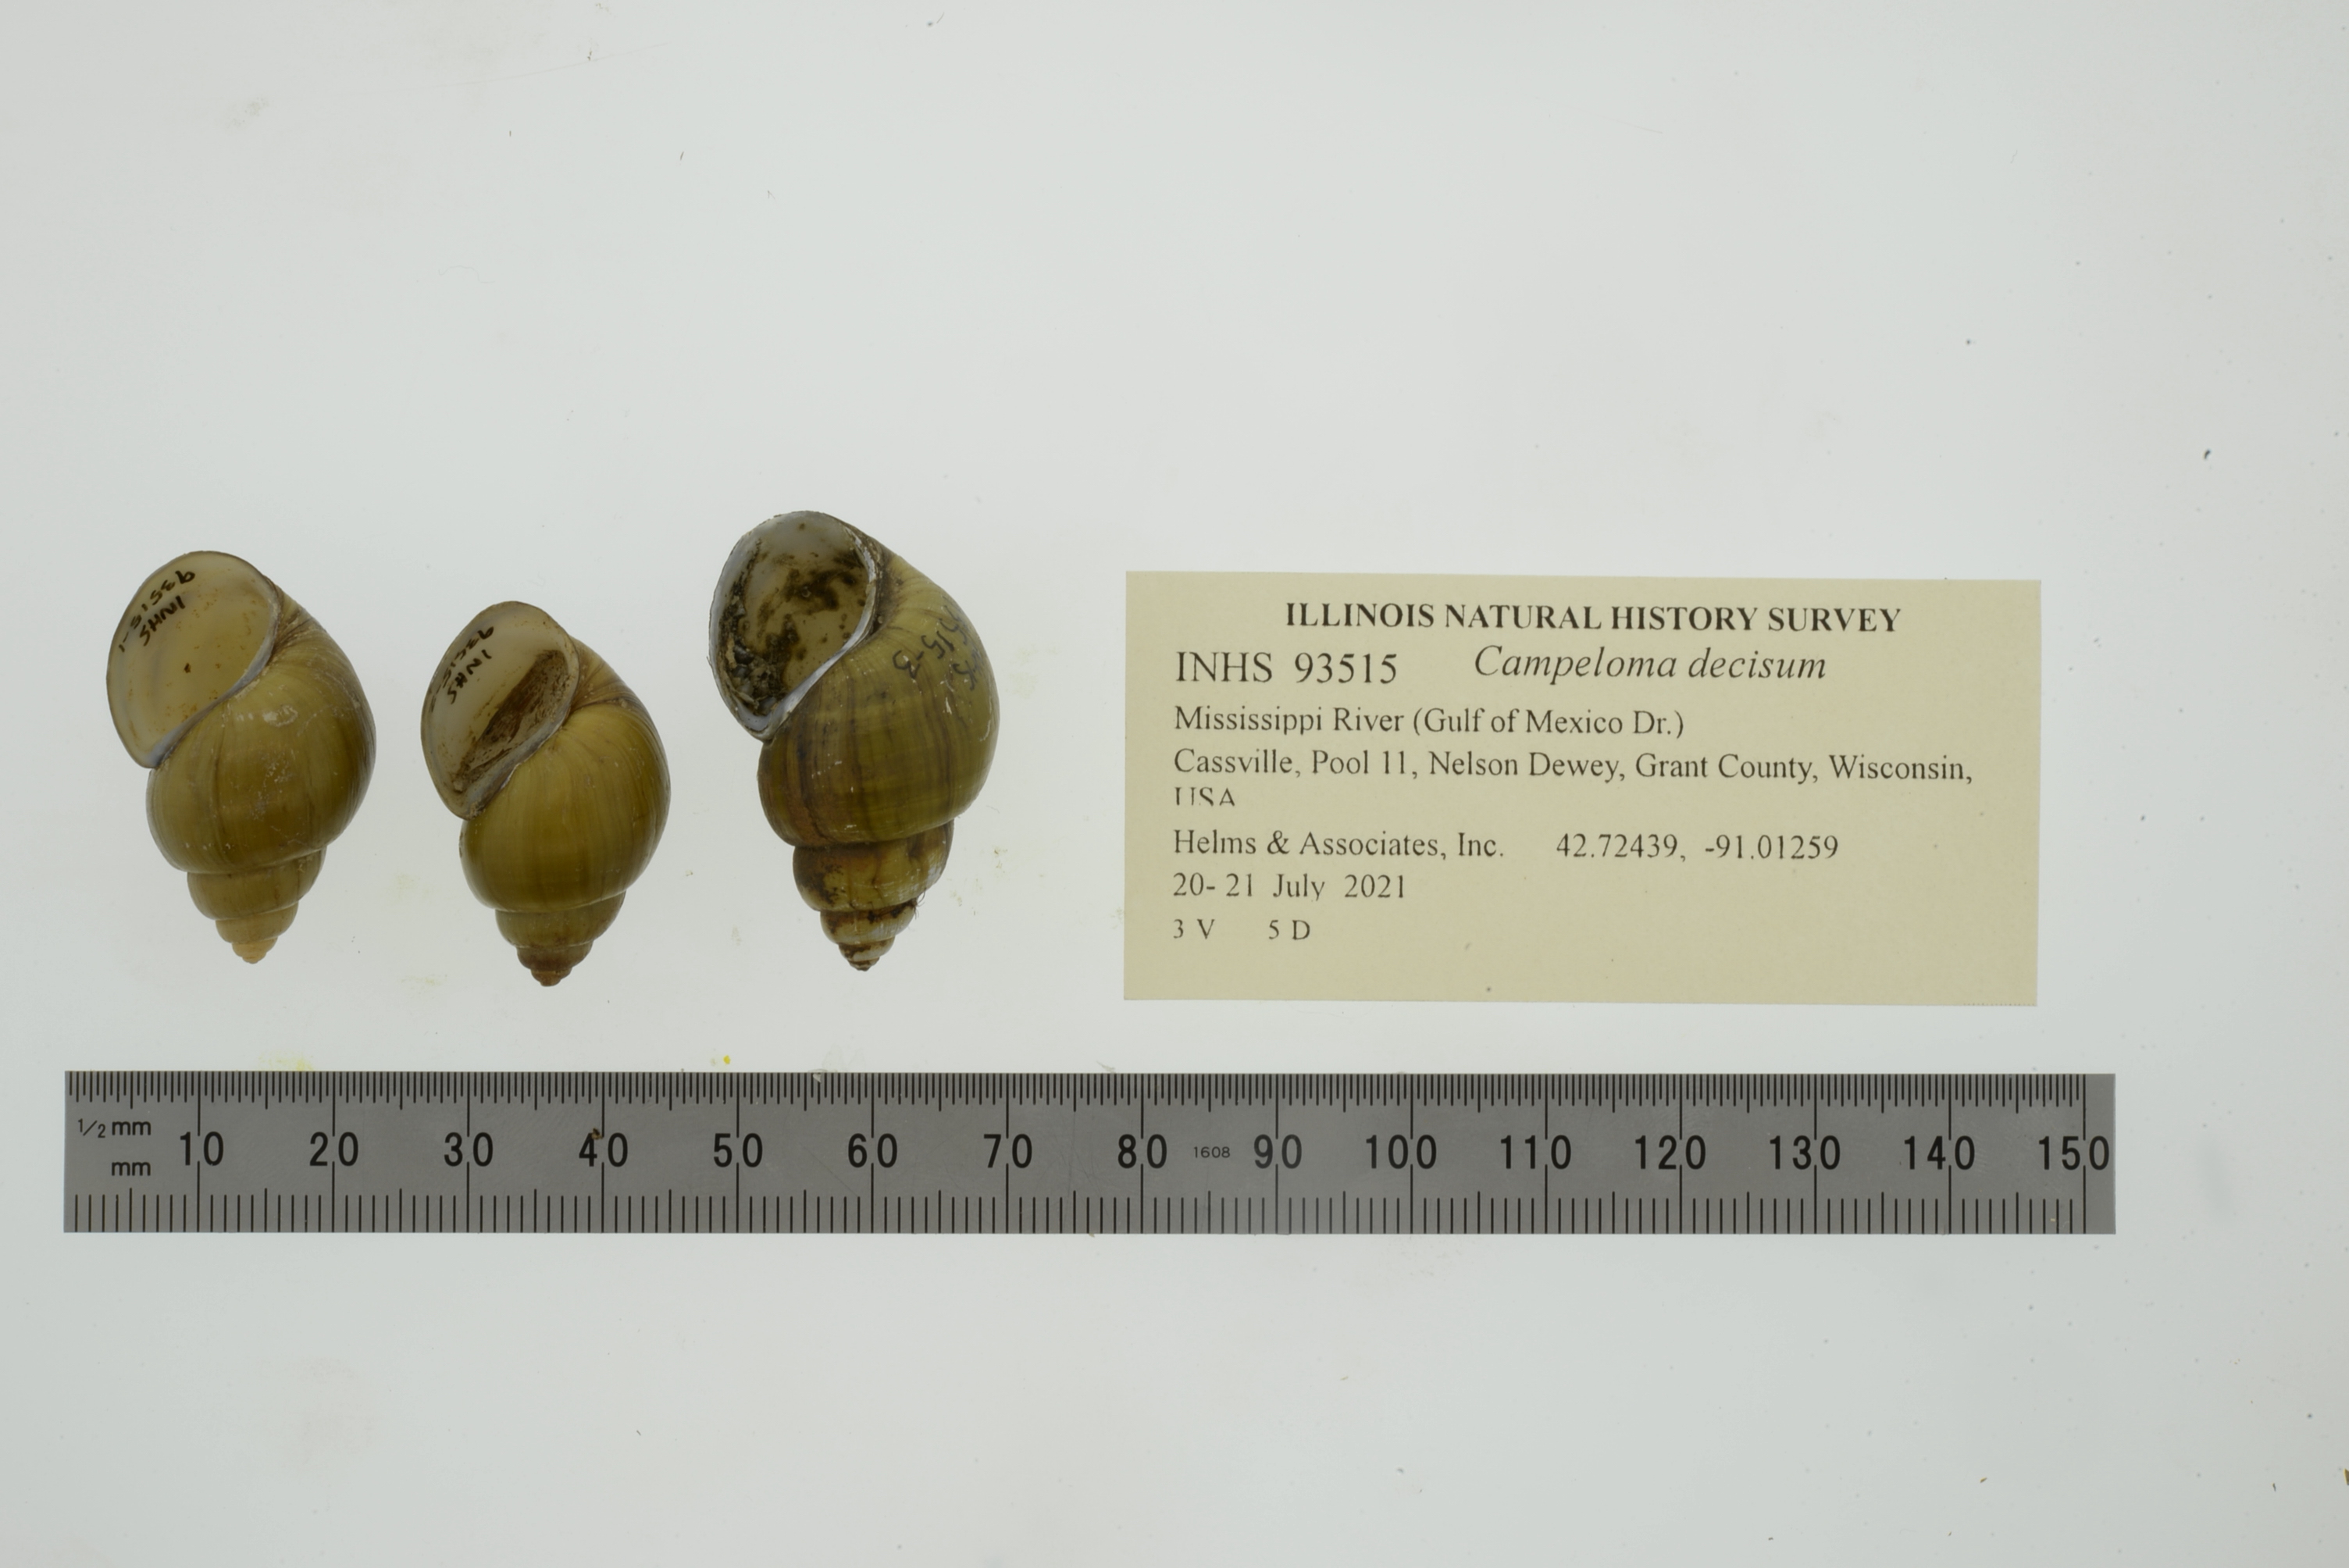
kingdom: Animalia
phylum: Mollusca
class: Gastropoda
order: Architaenioglossa
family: Viviparidae
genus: Campeloma
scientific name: Campeloma decisum
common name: Pointed campeloma
